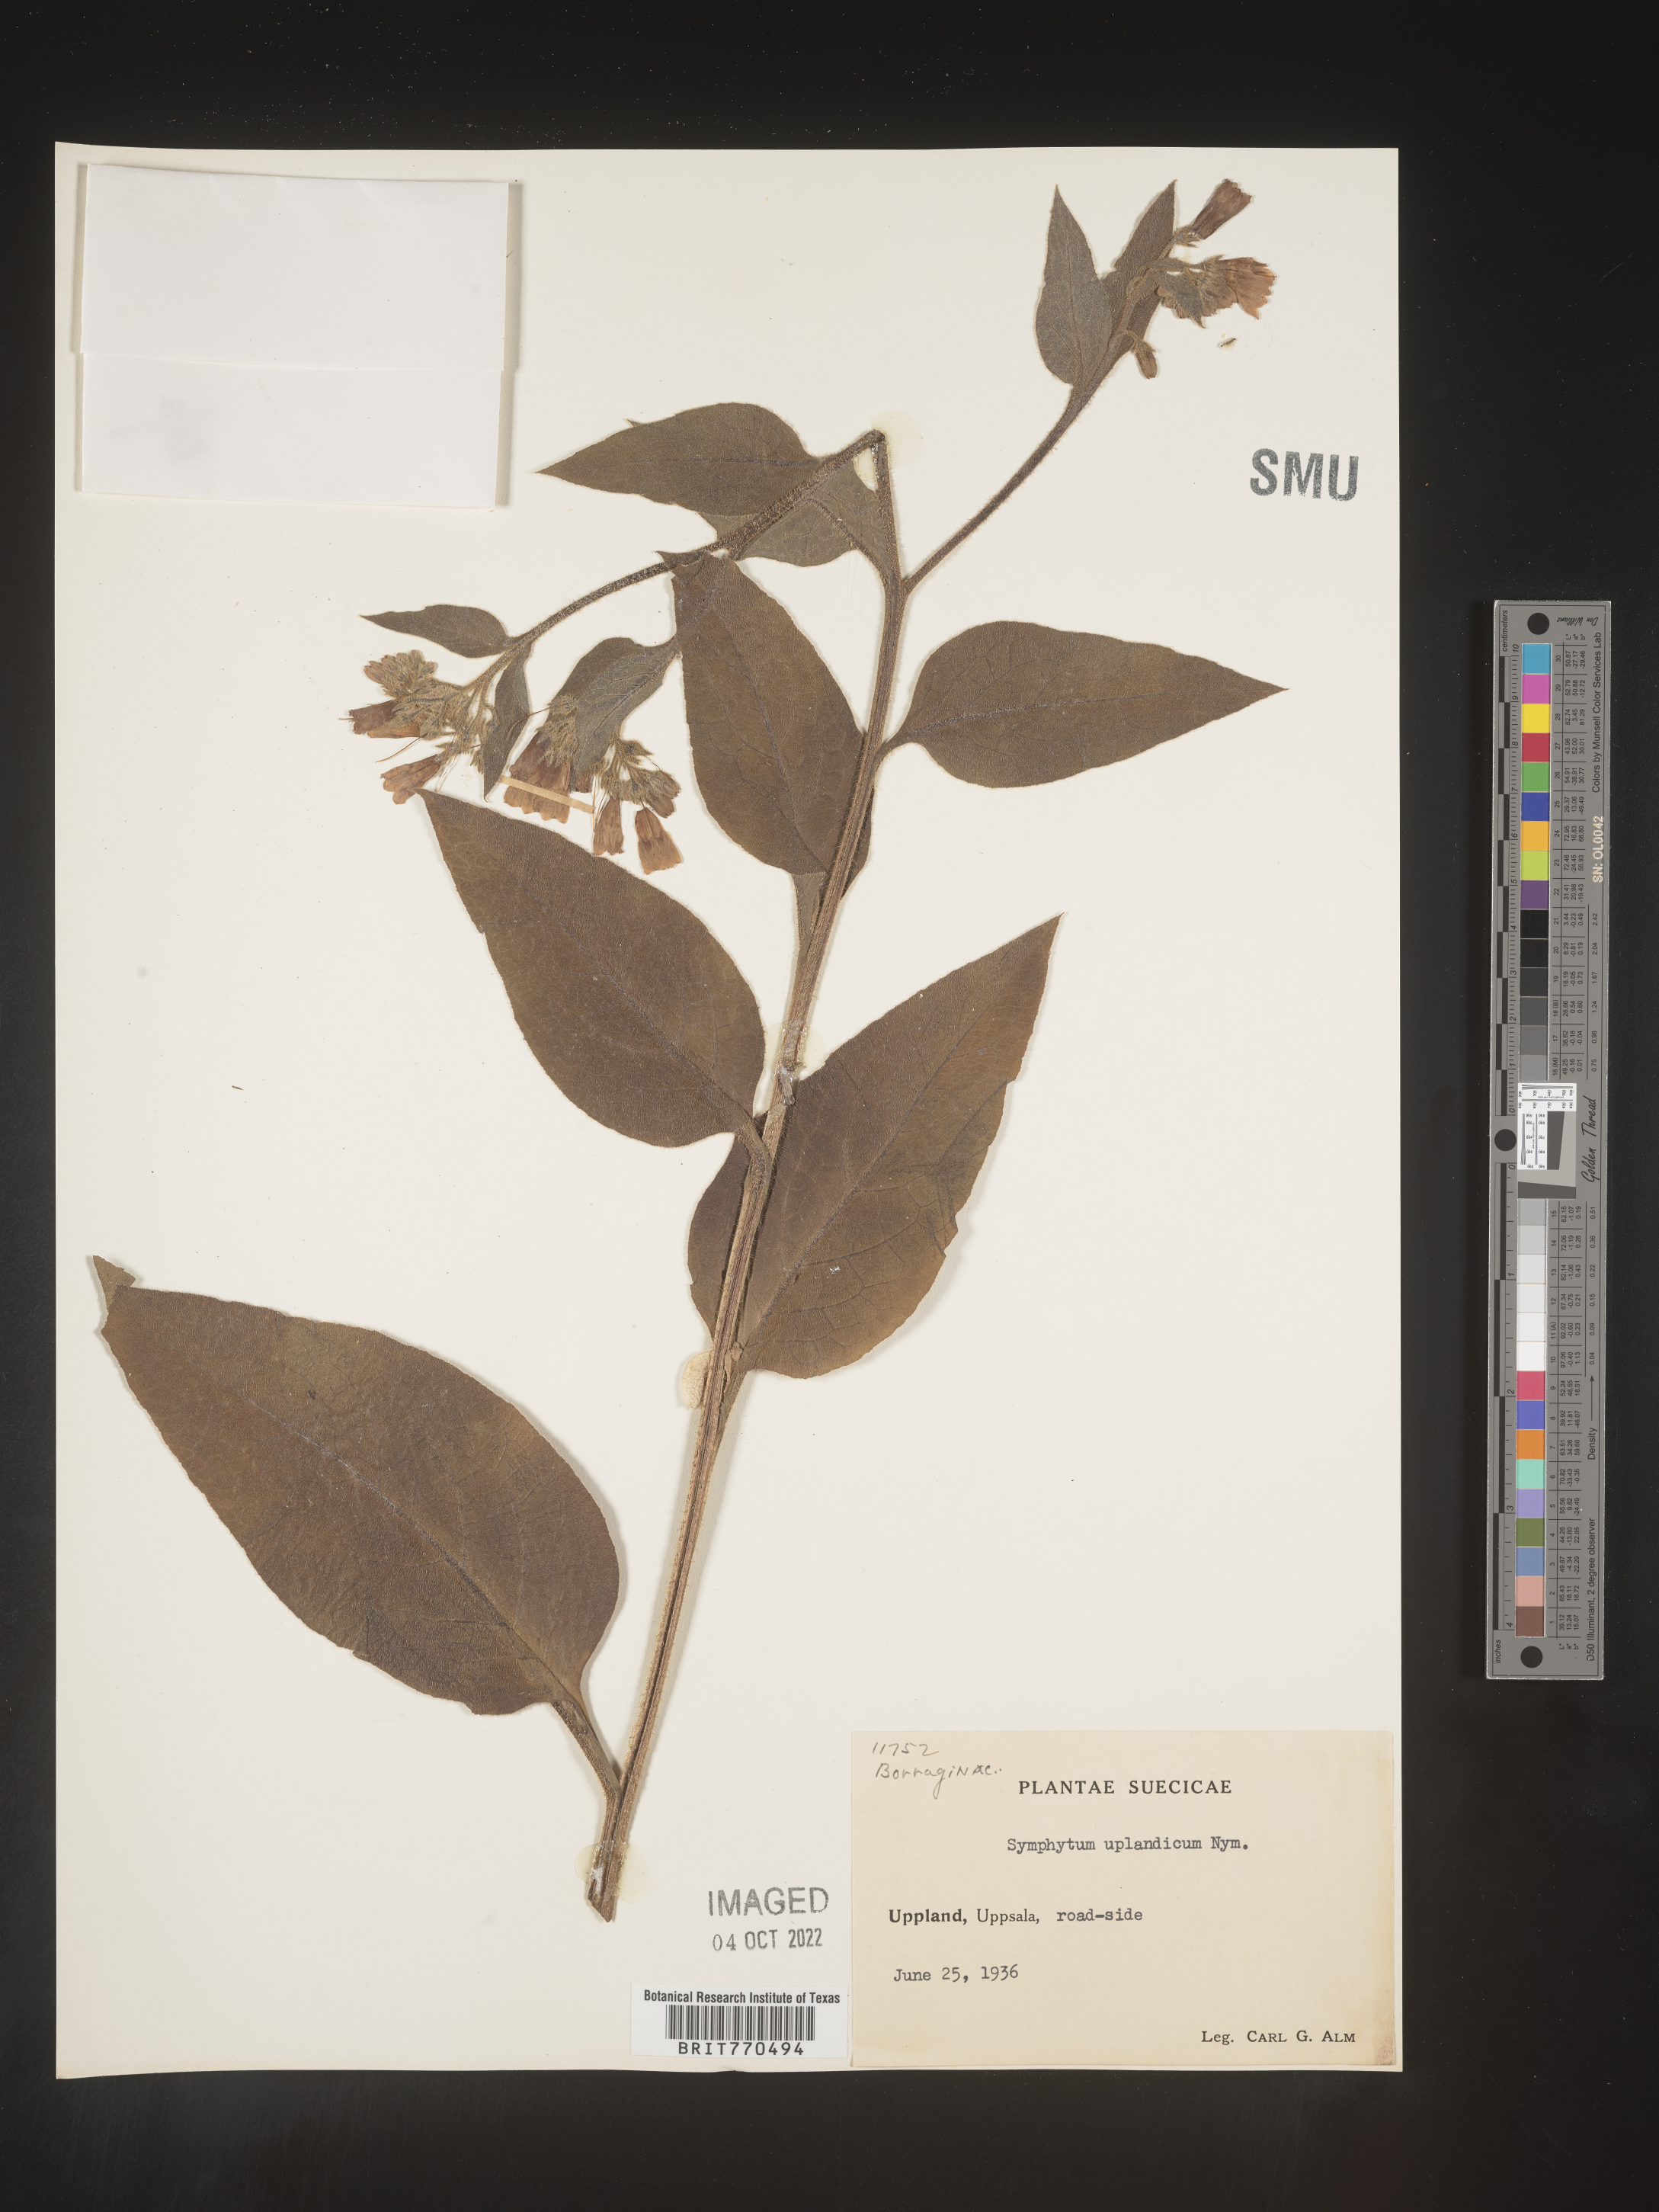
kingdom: Plantae
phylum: Tracheophyta
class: Magnoliopsida
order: Boraginales
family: Boraginaceae
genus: Symphytum
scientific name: Symphytum
